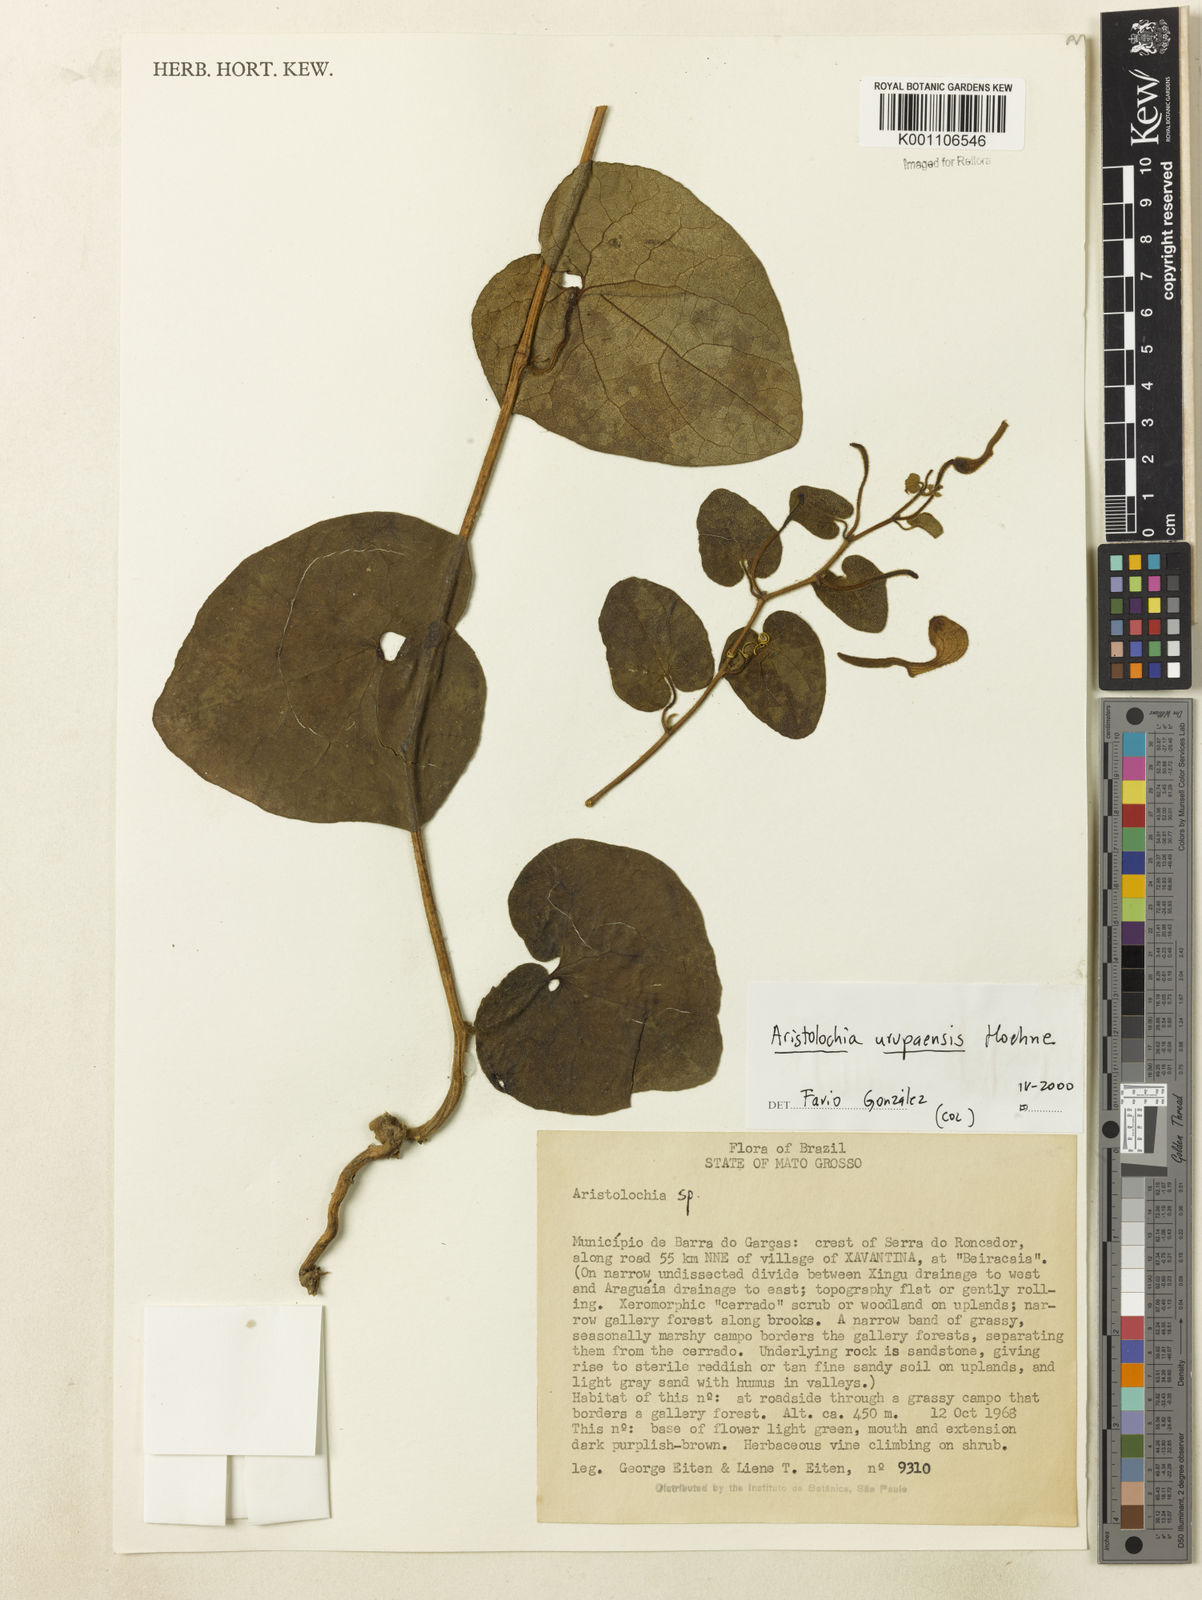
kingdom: Plantae
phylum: Tracheophyta
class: Magnoliopsida
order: Piperales
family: Aristolochiaceae
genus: Aristolochia
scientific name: Aristolochia urupaensis
